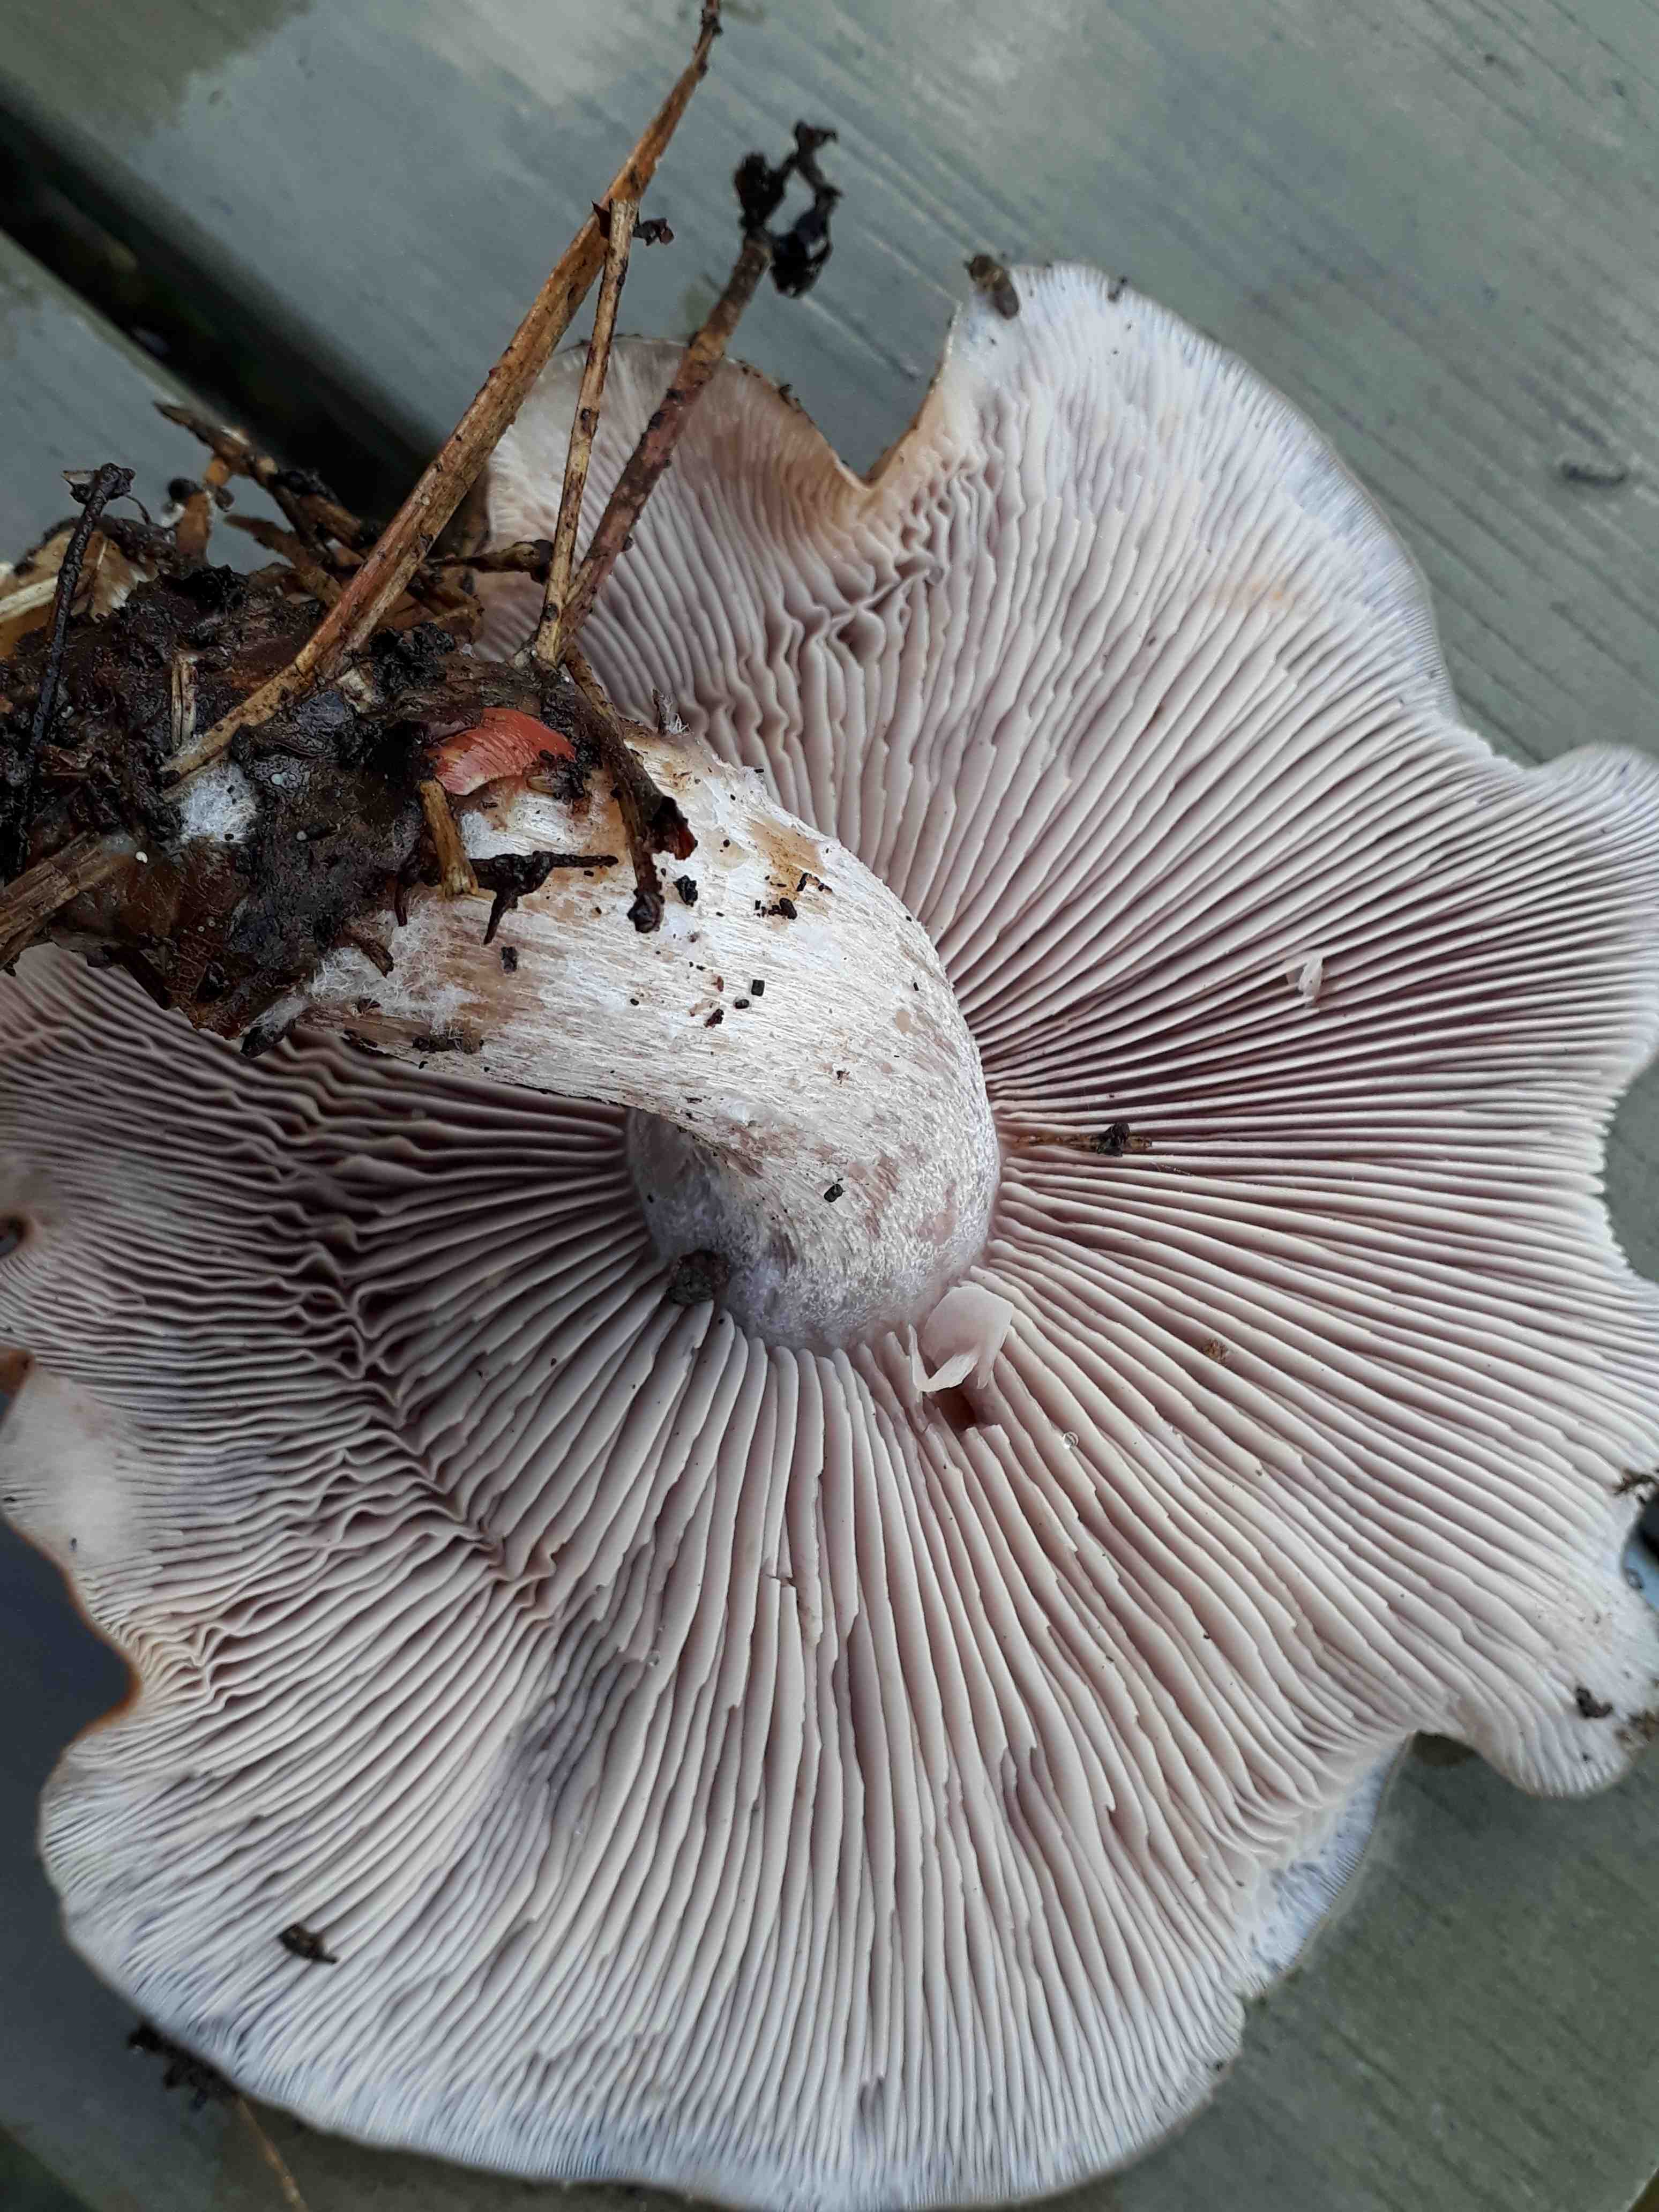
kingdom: Fungi
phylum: Basidiomycota
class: Agaricomycetes
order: Agaricales
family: Tricholomataceae
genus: Lepista
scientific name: Lepista nuda
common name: violet hekseringshat
